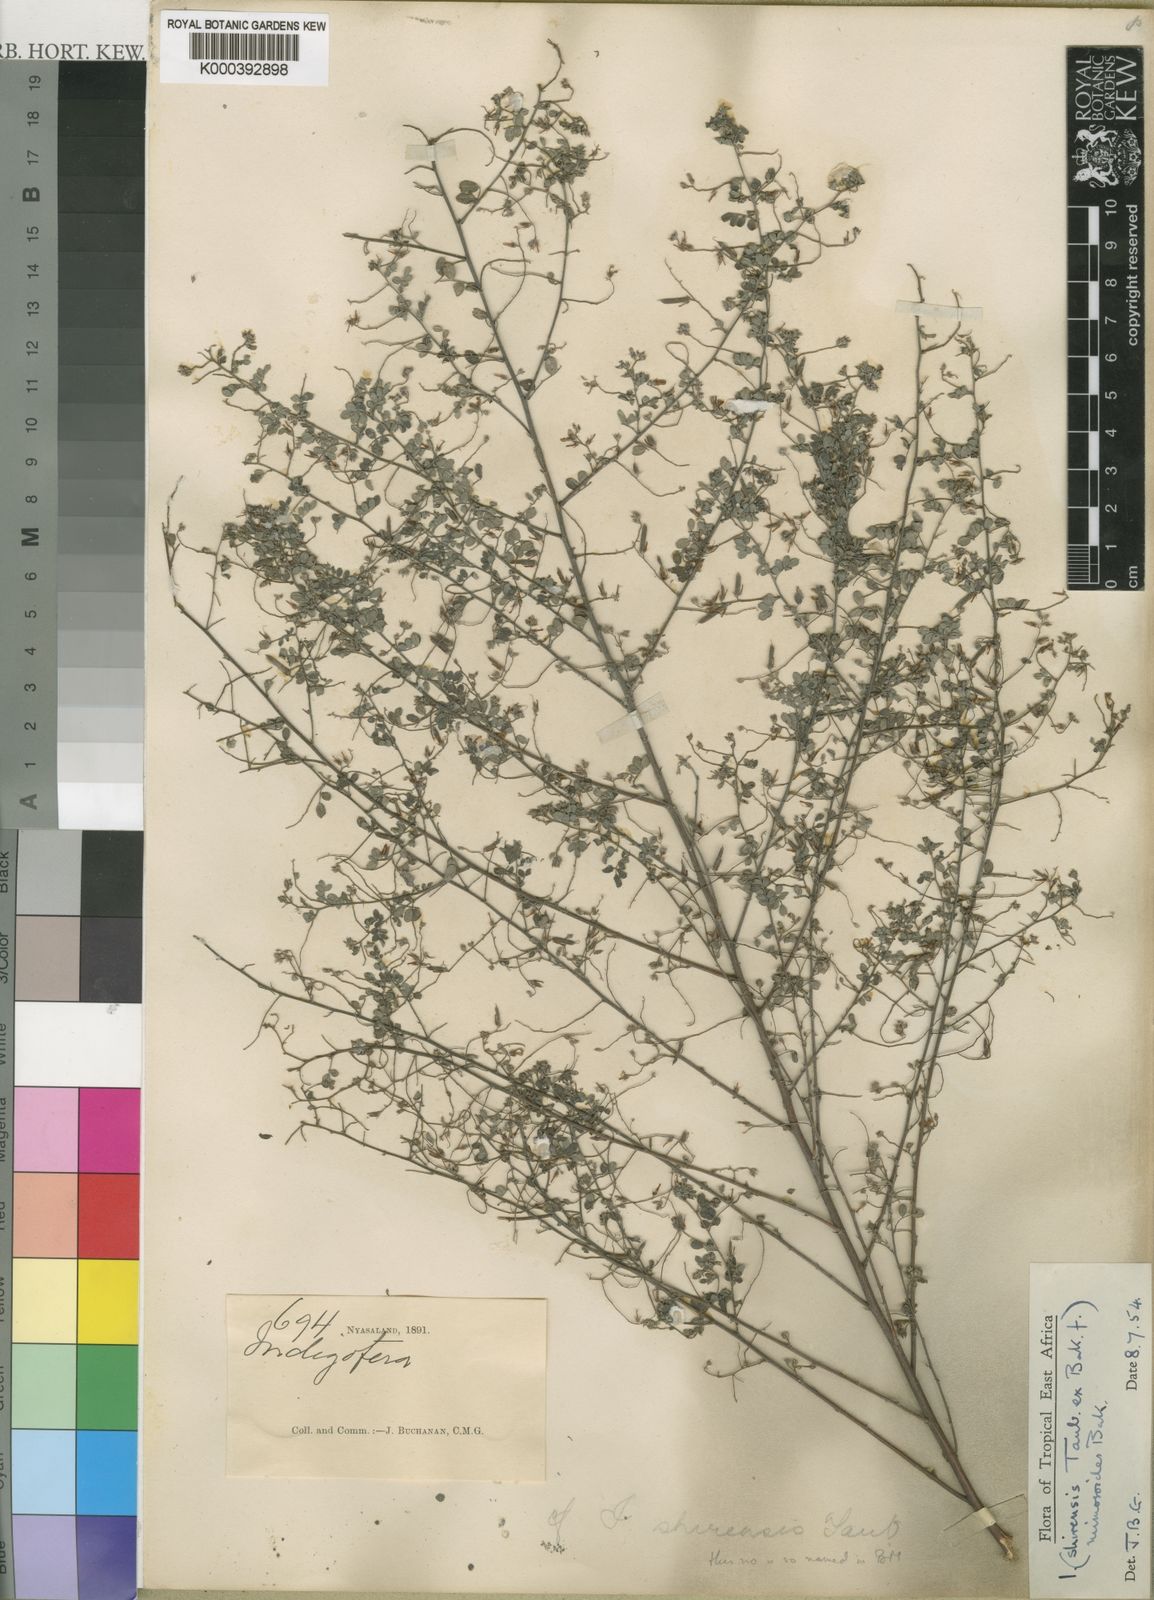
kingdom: Plantae
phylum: Tracheophyta
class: Magnoliopsida
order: Fabales
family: Fabaceae
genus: Indigofera
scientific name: Indigofera mimosoides
